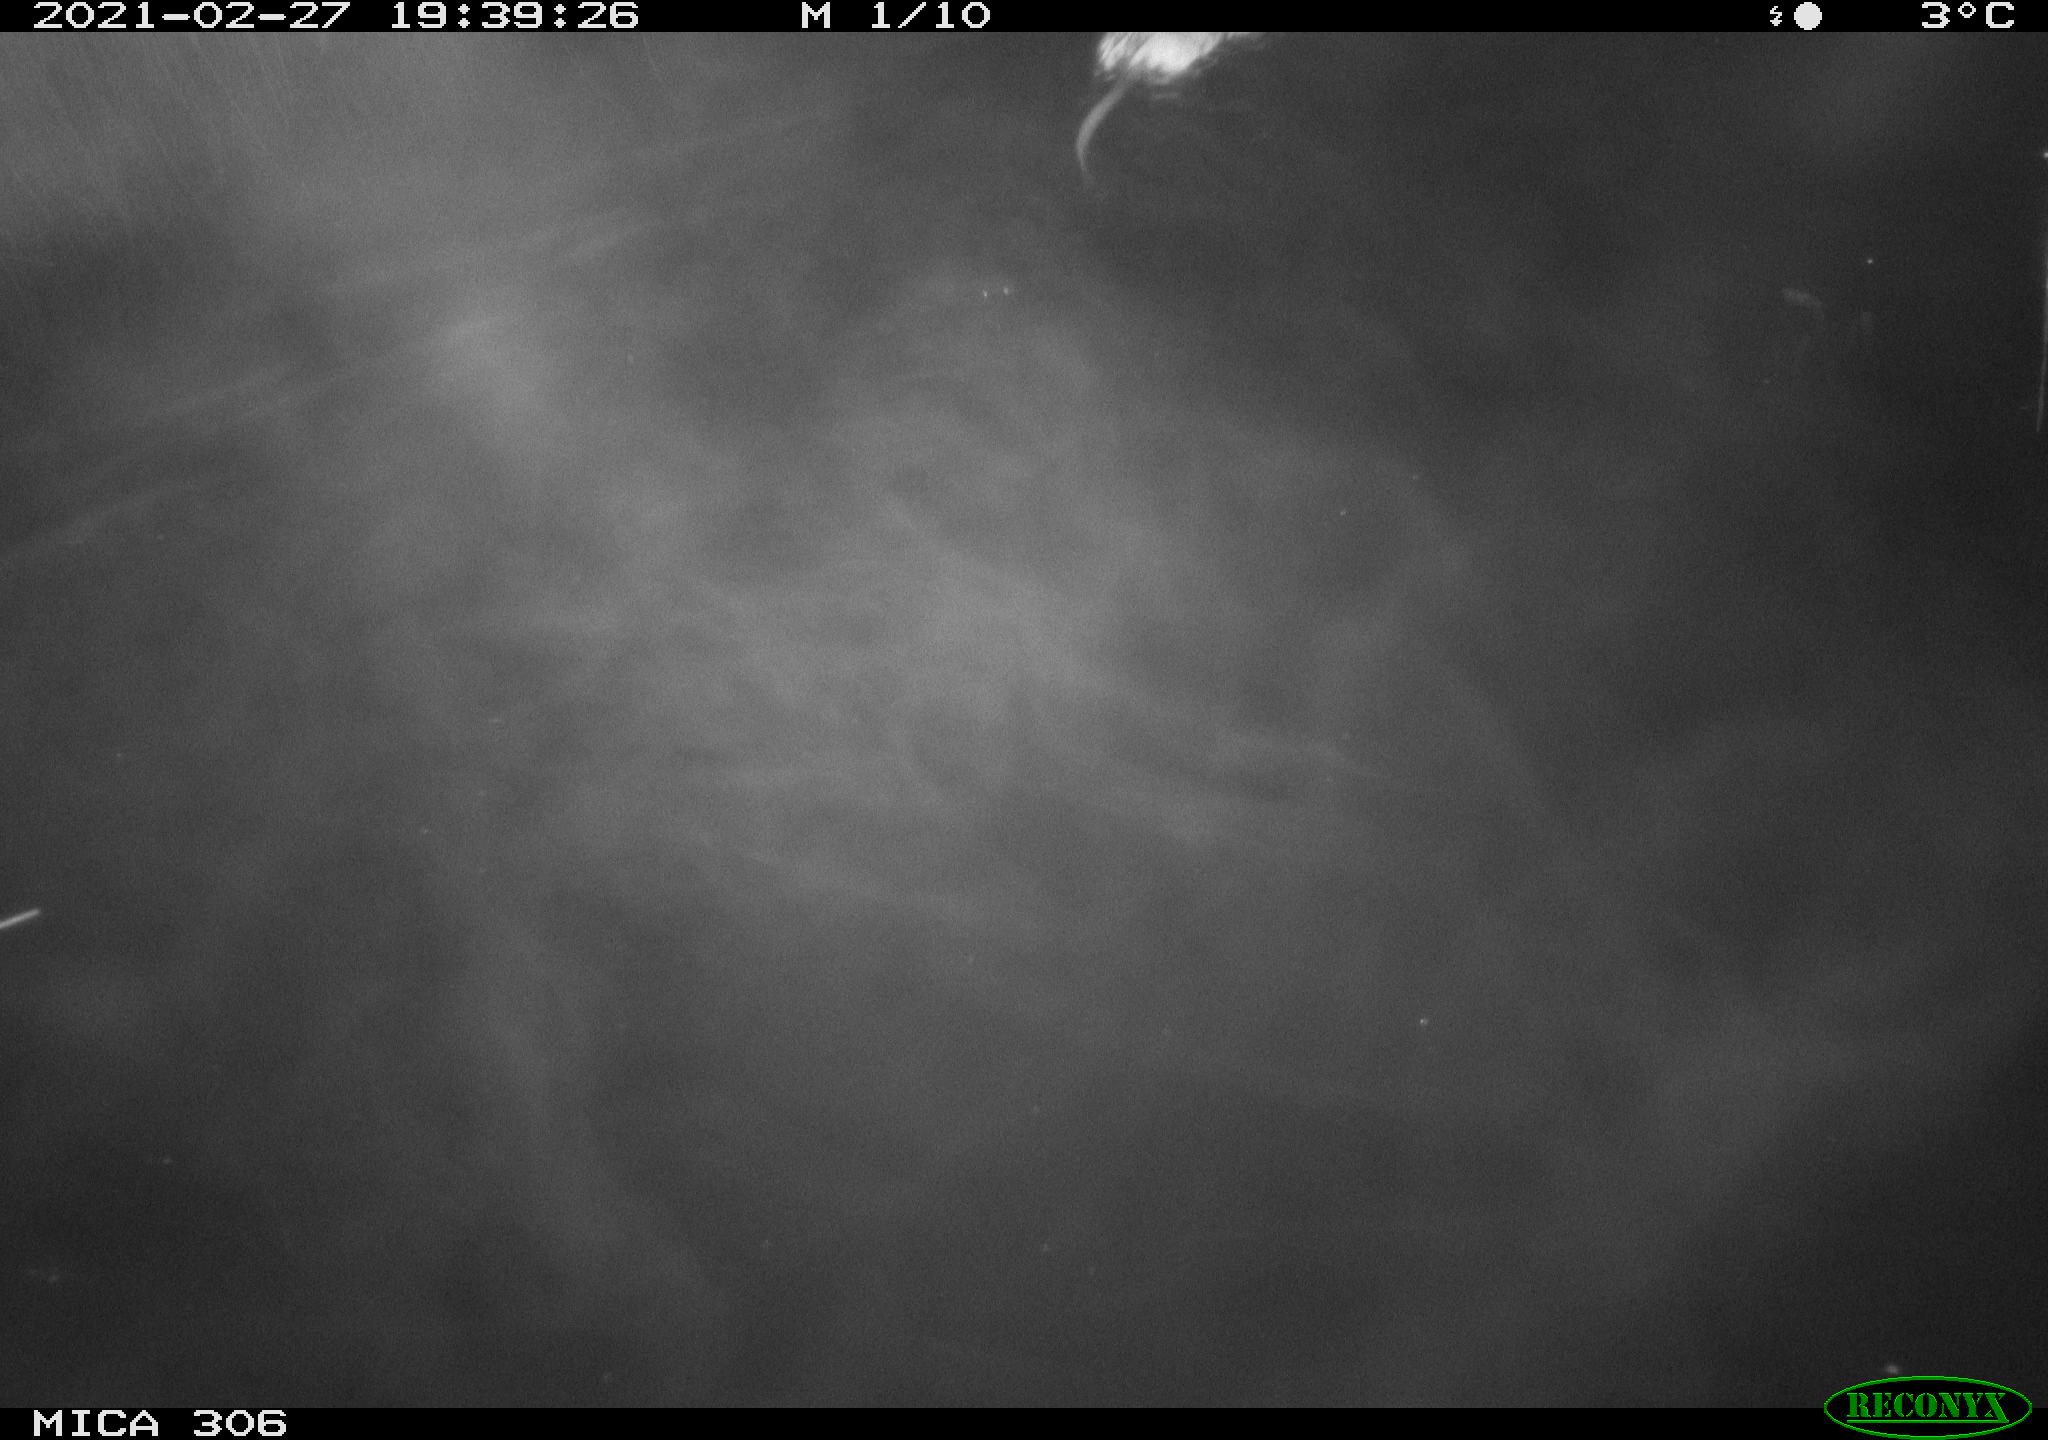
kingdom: Animalia
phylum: Chordata
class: Mammalia
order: Rodentia
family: Cricetidae
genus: Ondatra
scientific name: Ondatra zibethicus
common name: Muskrat
